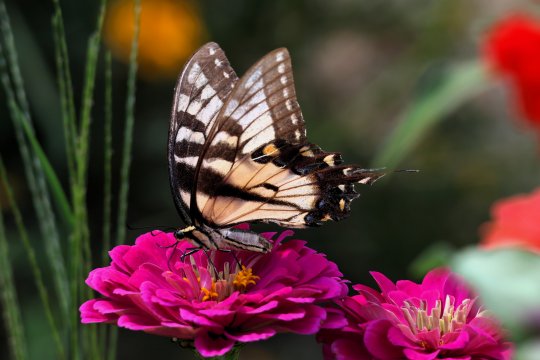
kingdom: Animalia
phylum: Arthropoda
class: Insecta
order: Lepidoptera
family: Papilionidae
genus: Pterourus
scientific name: Pterourus glaucus
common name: Eastern Tiger Swallowtail
